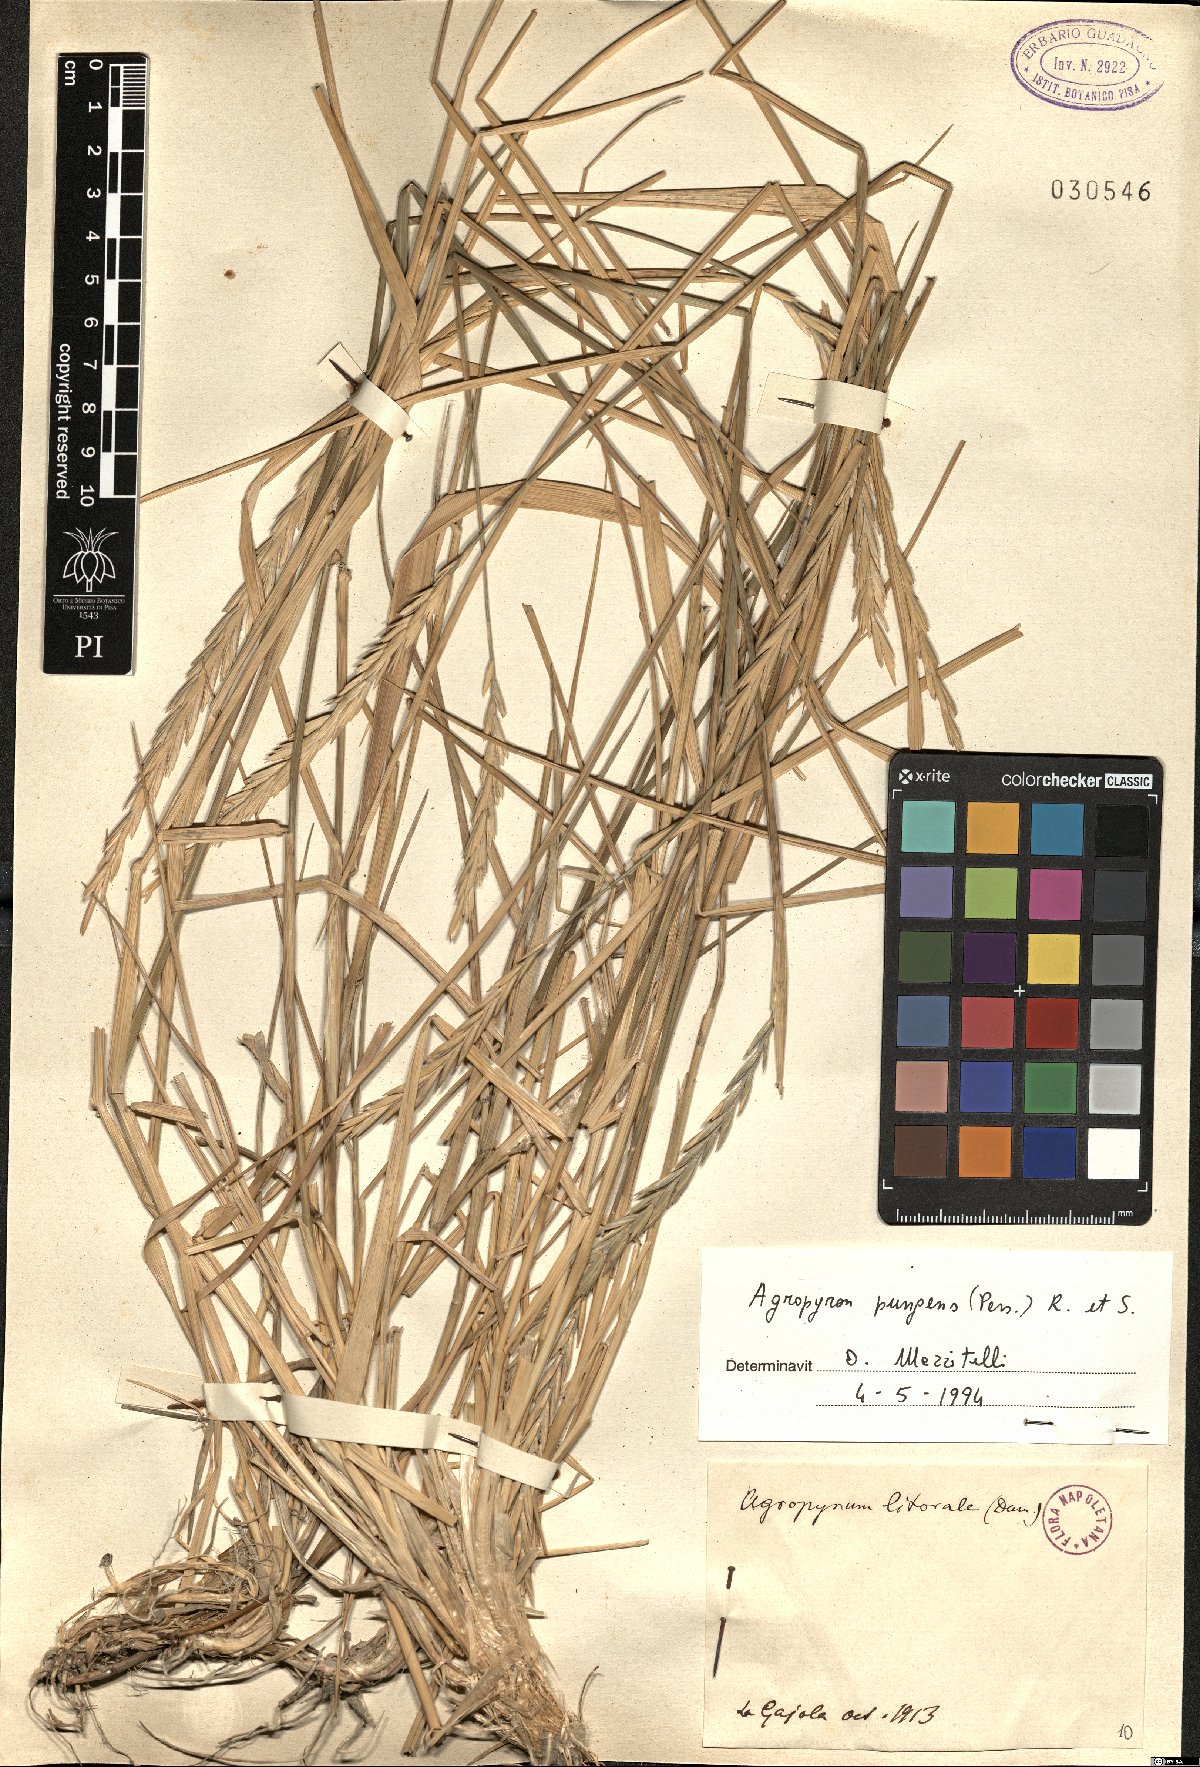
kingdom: Plantae
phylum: Tracheophyta
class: Liliopsida
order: Poales
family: Poaceae
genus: Elymus
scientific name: Elymus pungens
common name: Sea couch
